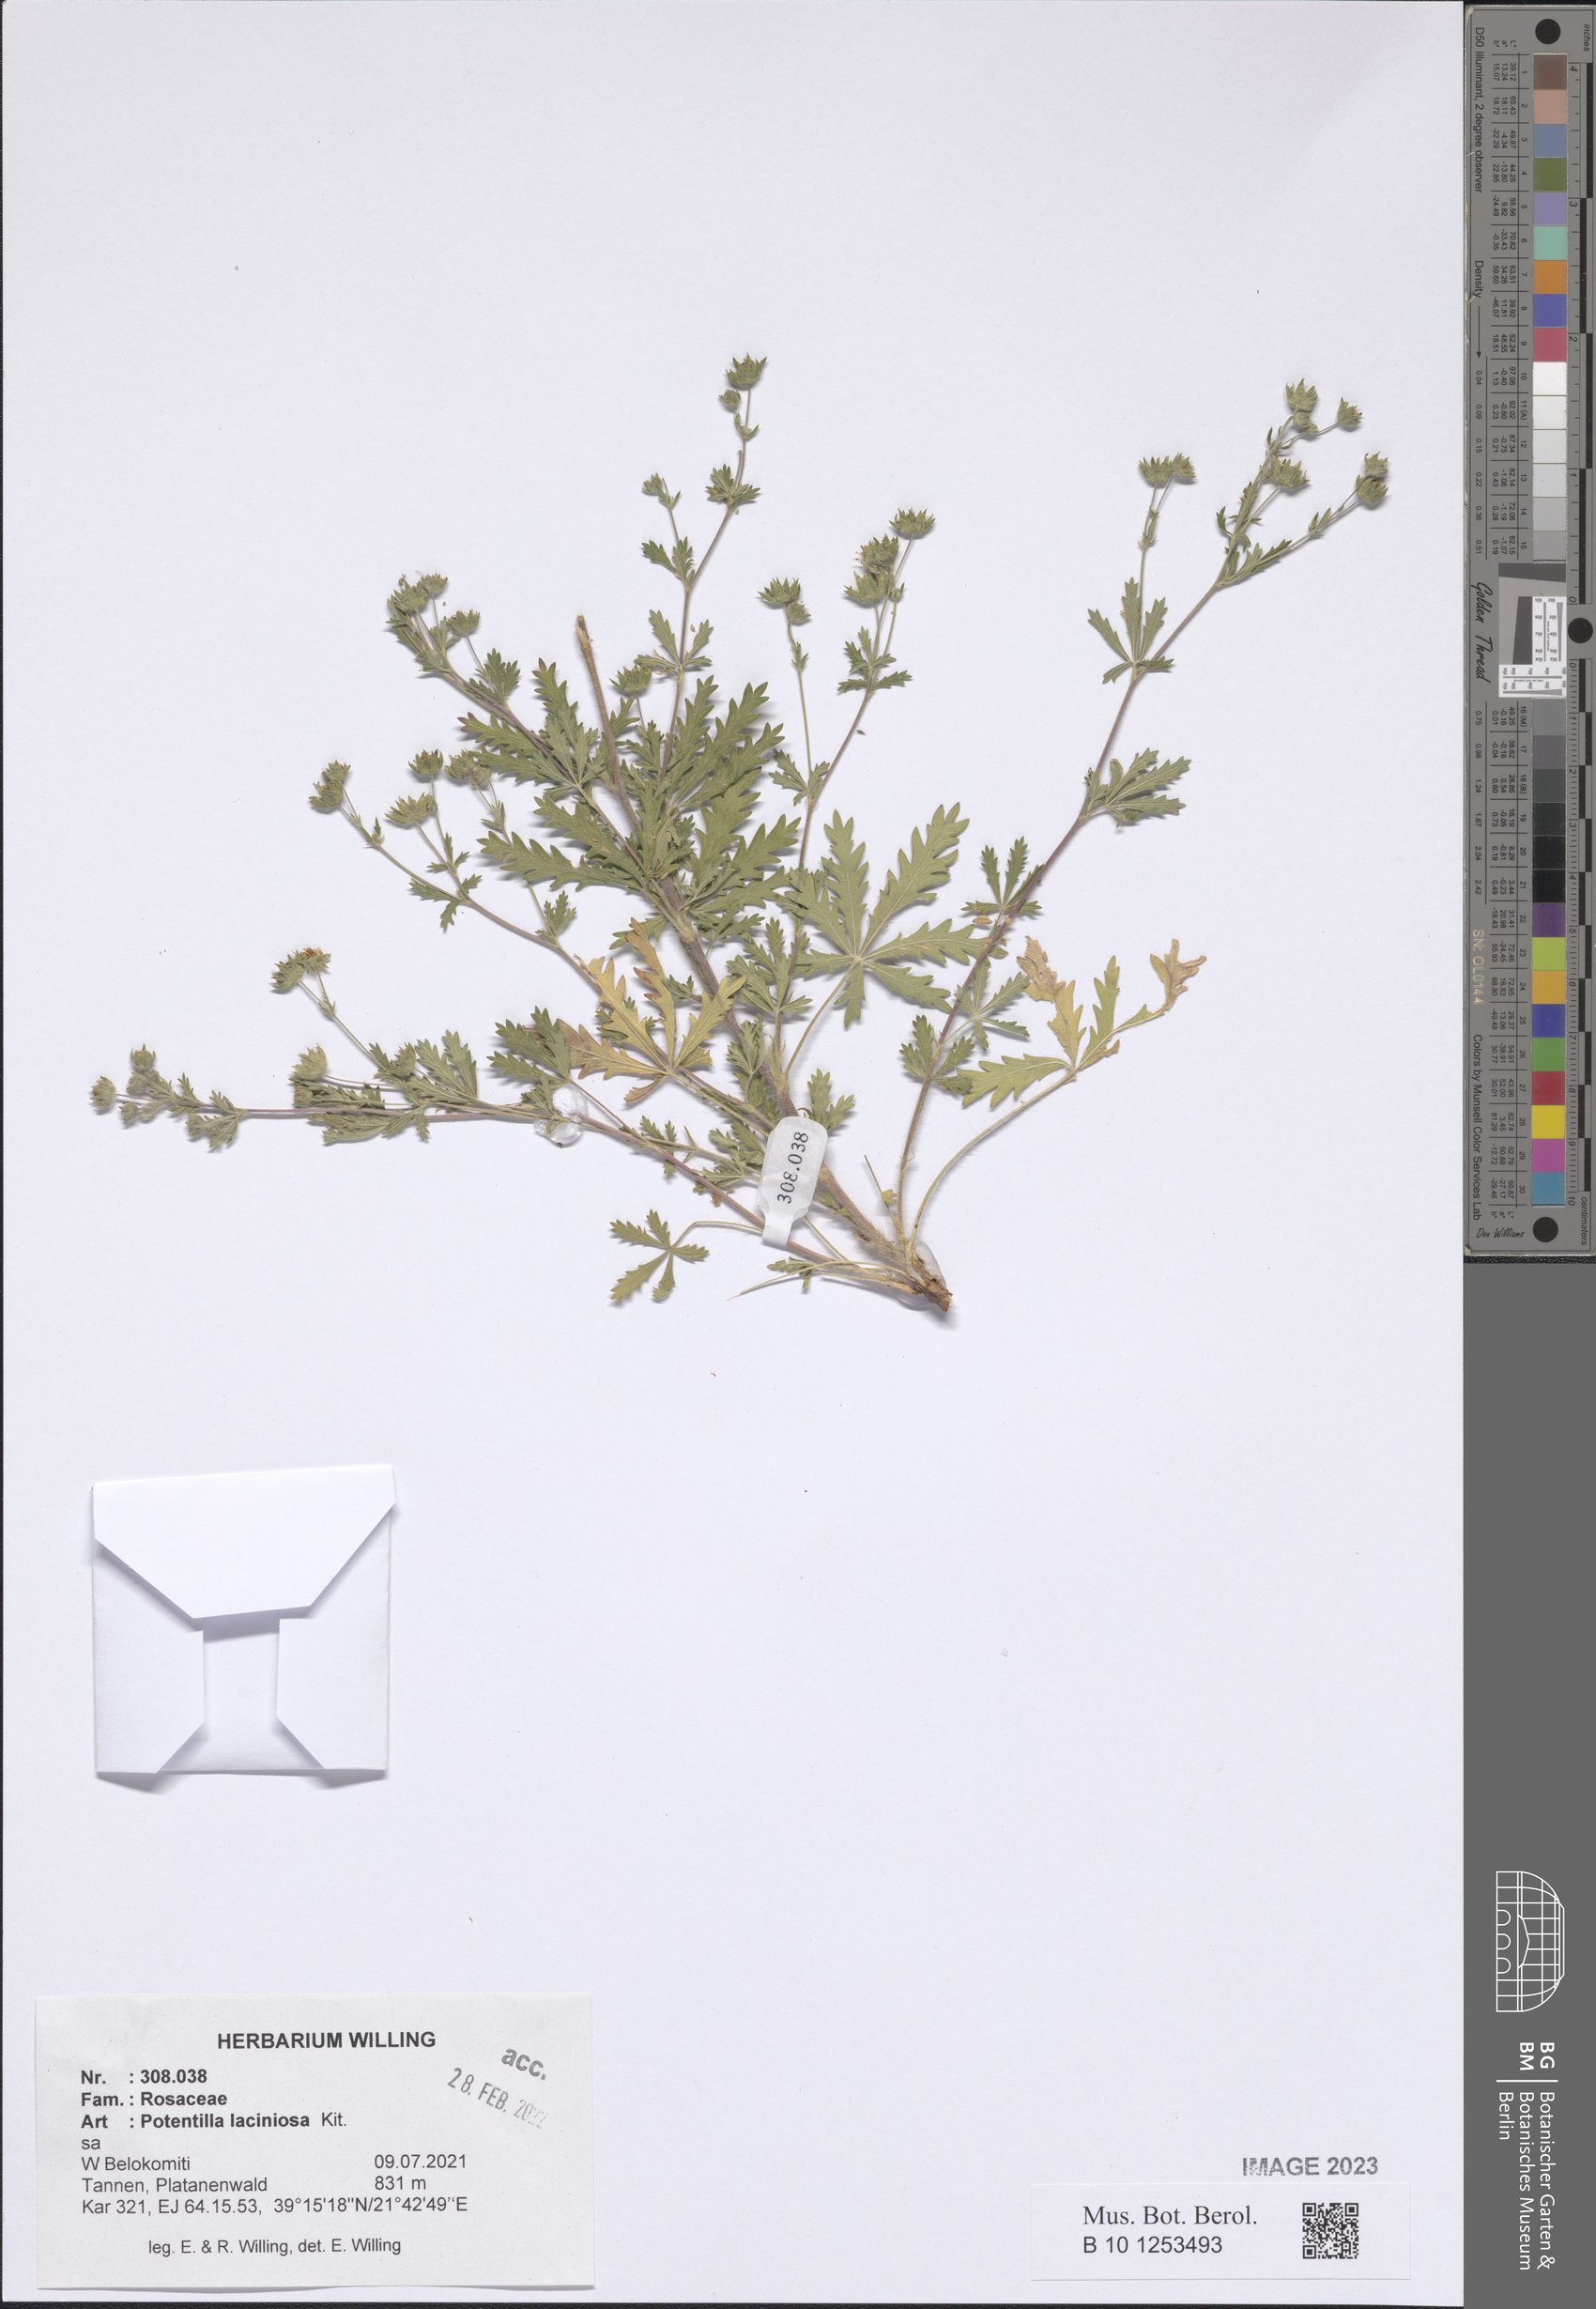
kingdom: Plantae
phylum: Tracheophyta
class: Magnoliopsida
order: Rosales
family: Rosaceae
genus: Potentilla
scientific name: Potentilla recta
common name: Sulphur cinquefoil
